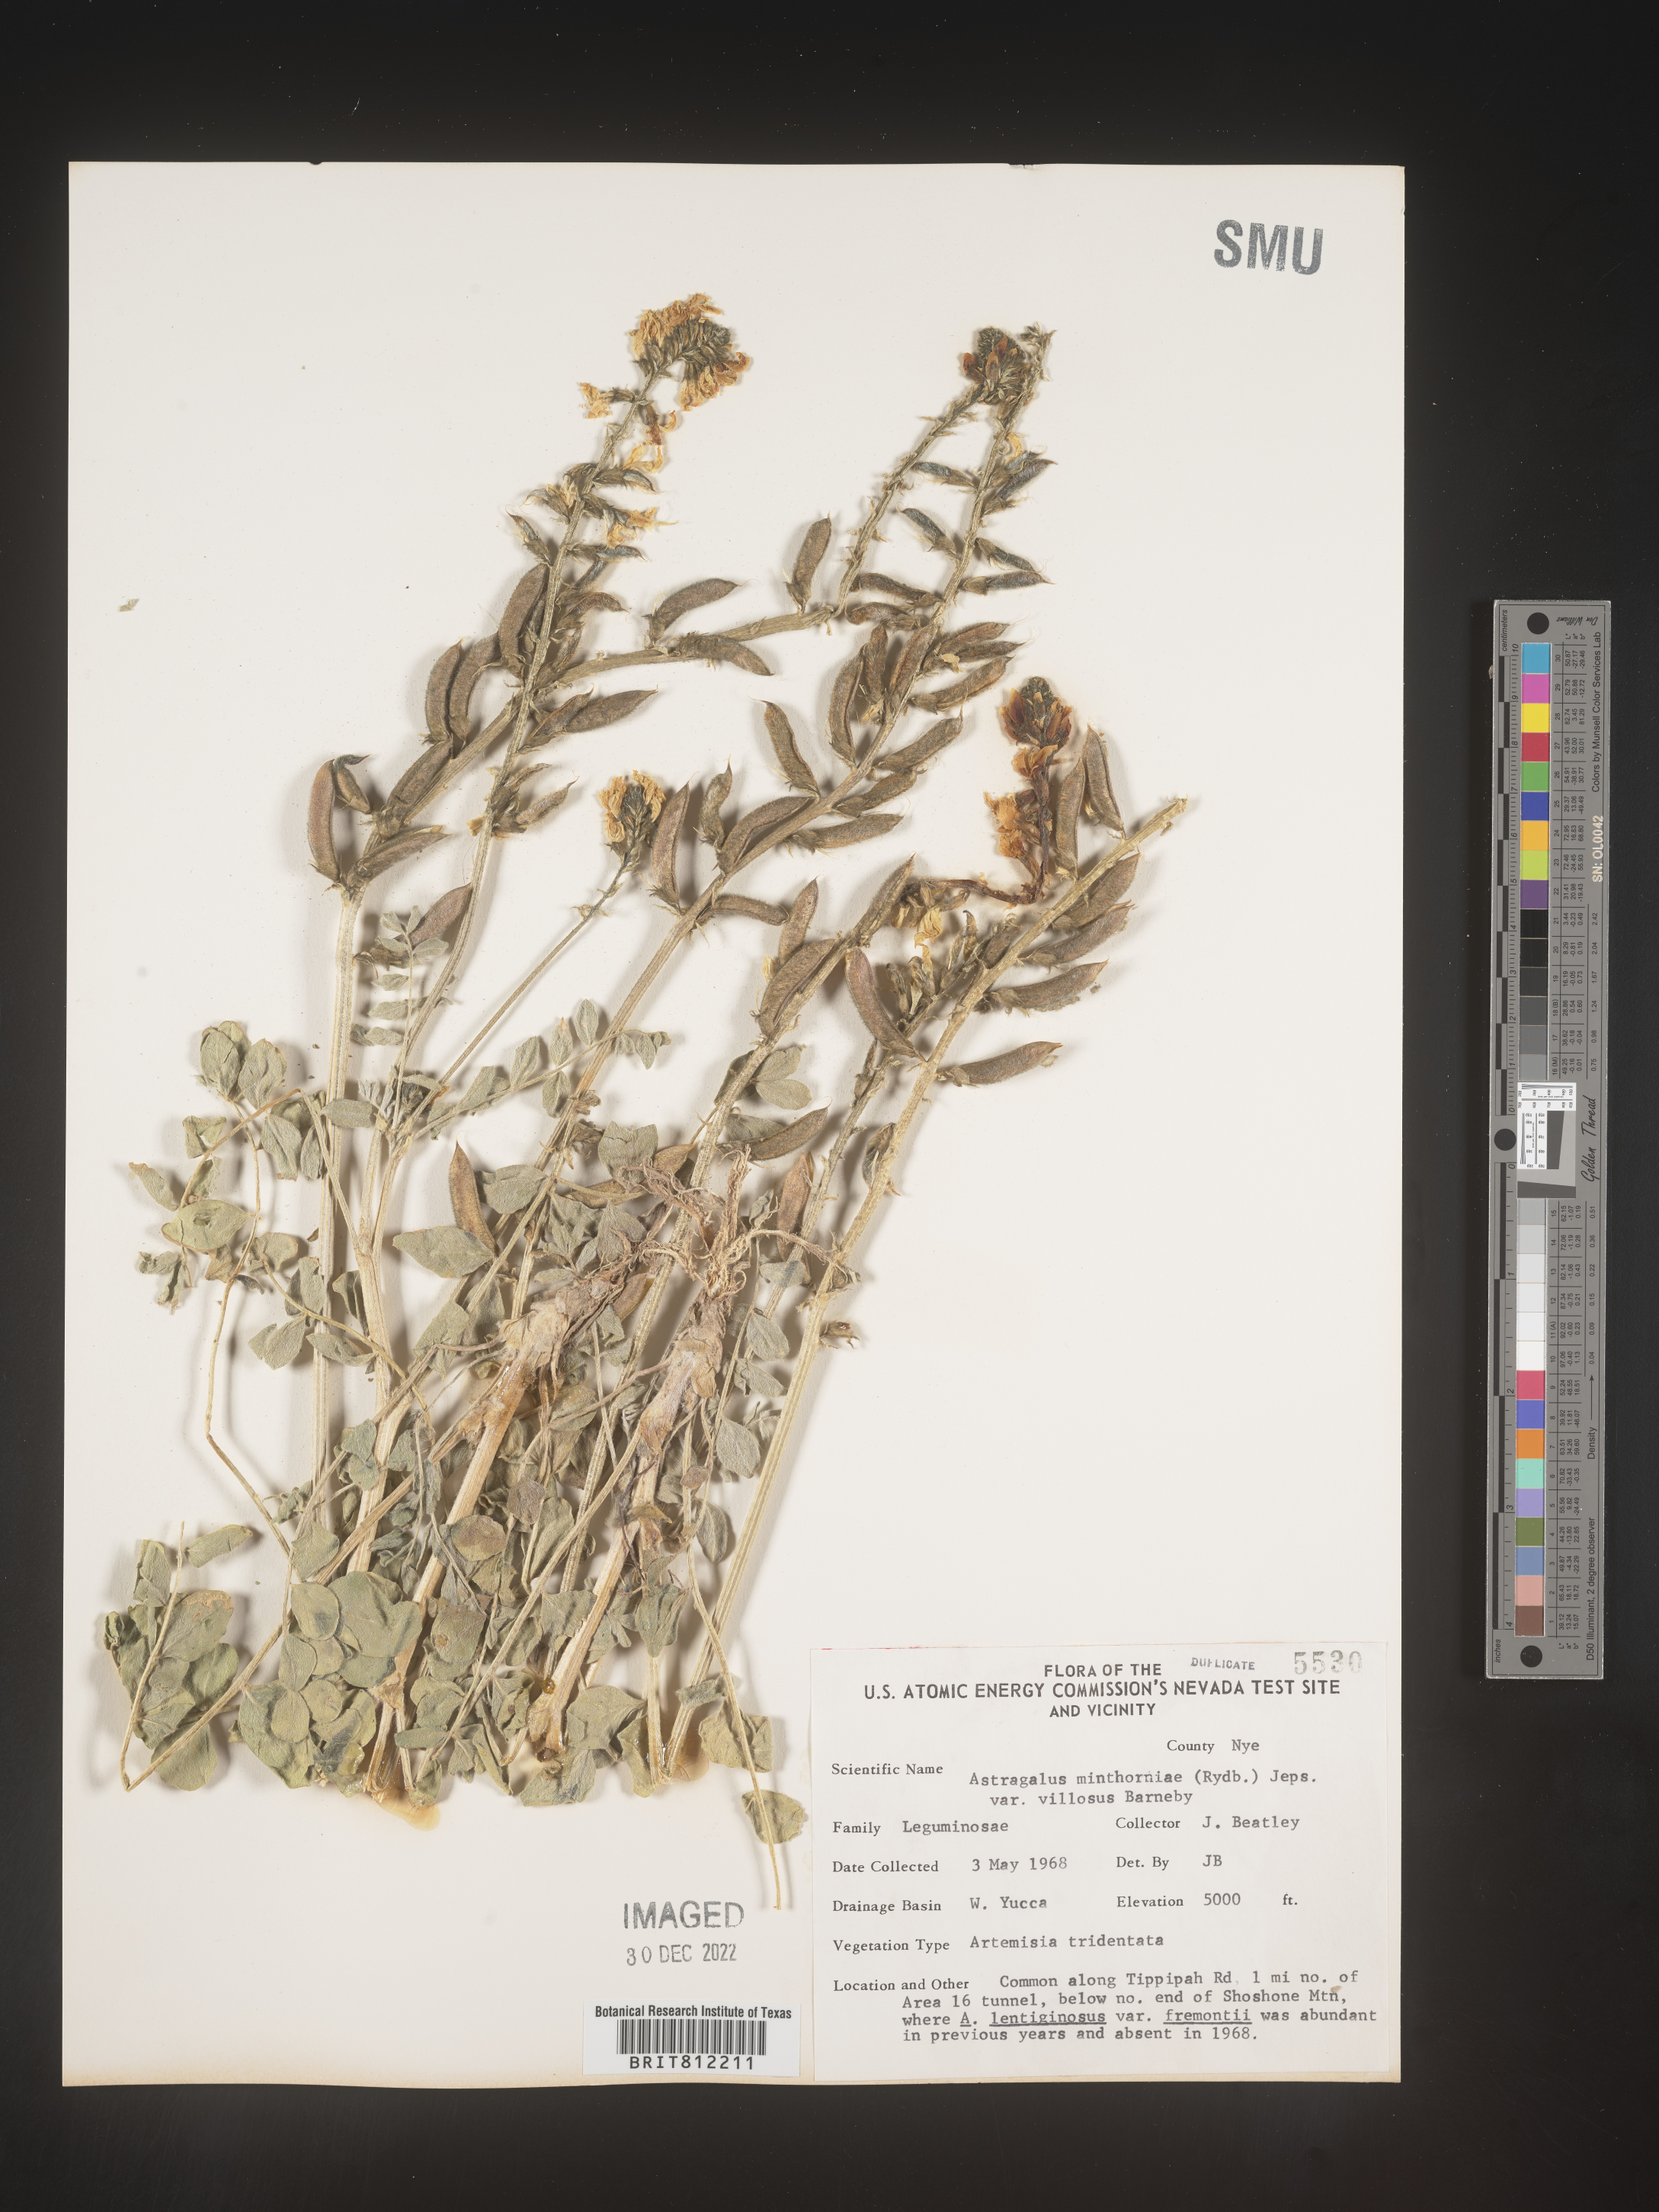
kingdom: Plantae
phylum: Tracheophyta
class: Magnoliopsida
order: Fabales
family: Fabaceae
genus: Astragalus
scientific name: Astragalus
